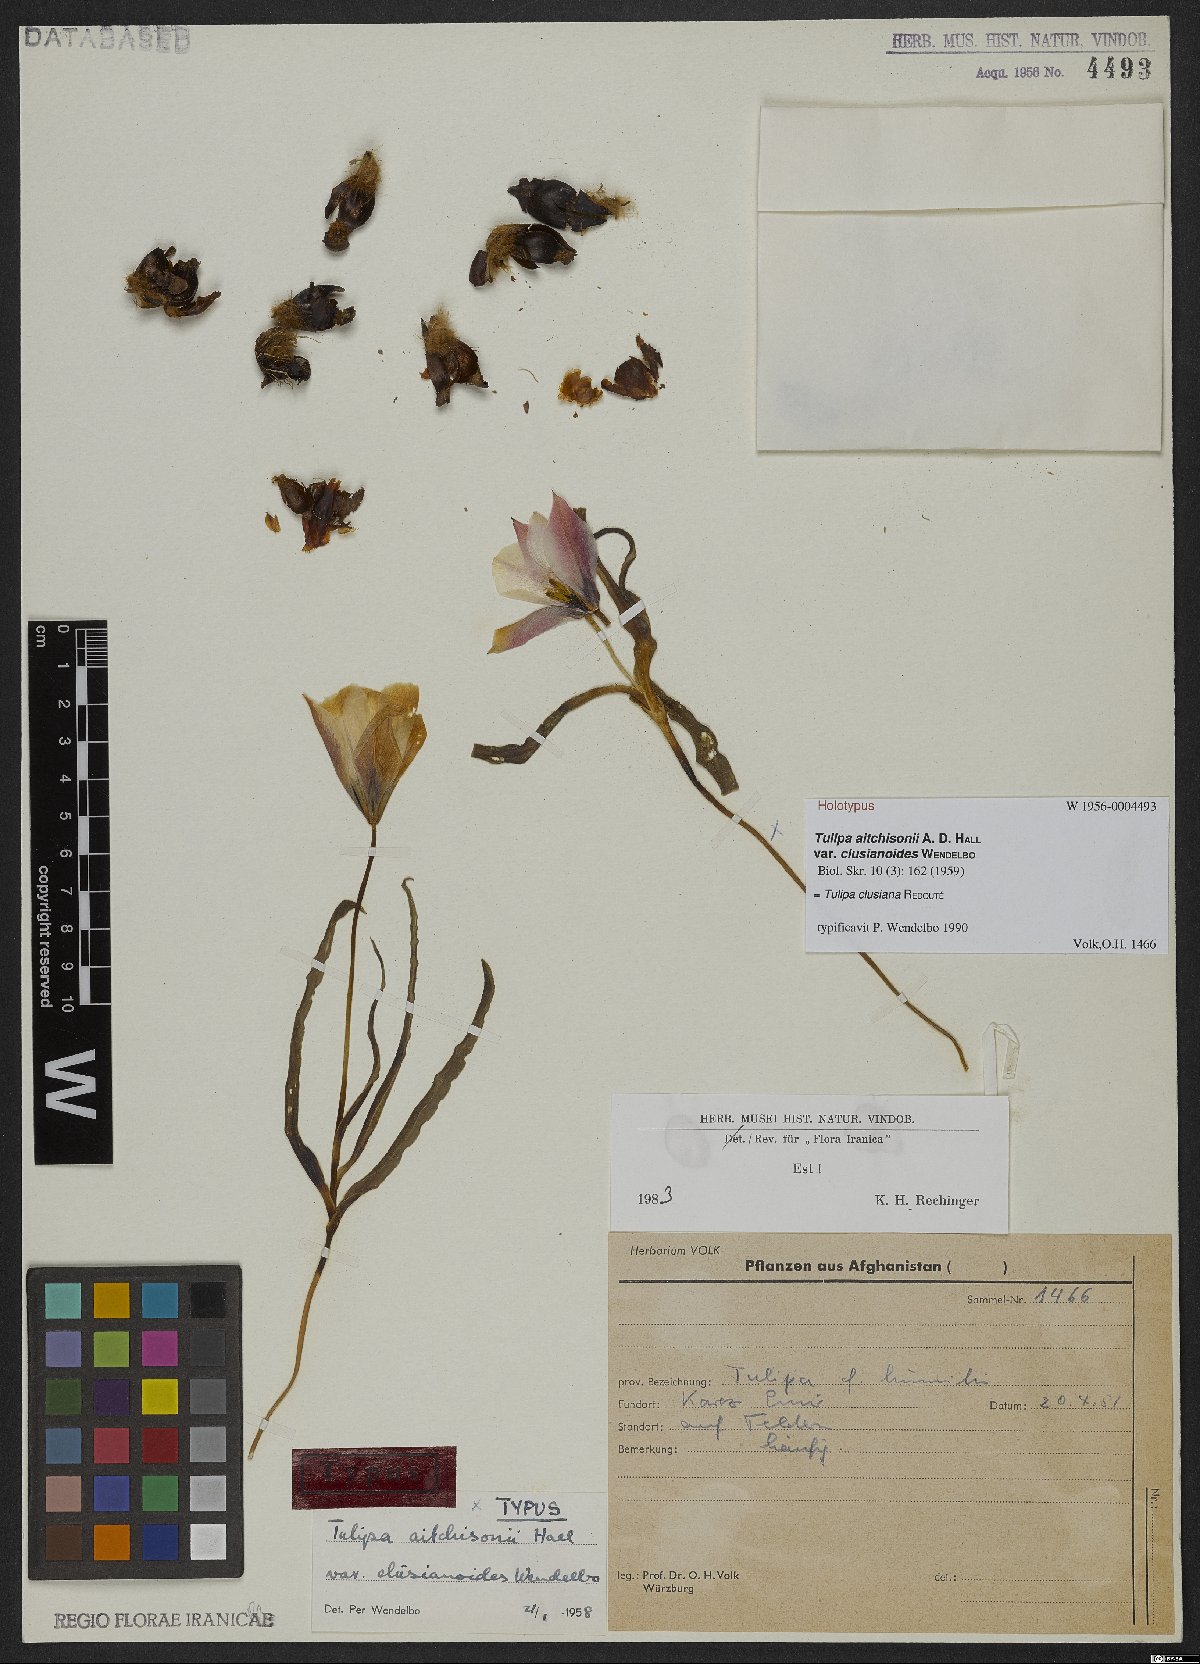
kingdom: Plantae
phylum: Tracheophyta
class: Liliopsida
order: Liliales
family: Liliaceae
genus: Tulipa
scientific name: Tulipa clusiana
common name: Lady tulip
